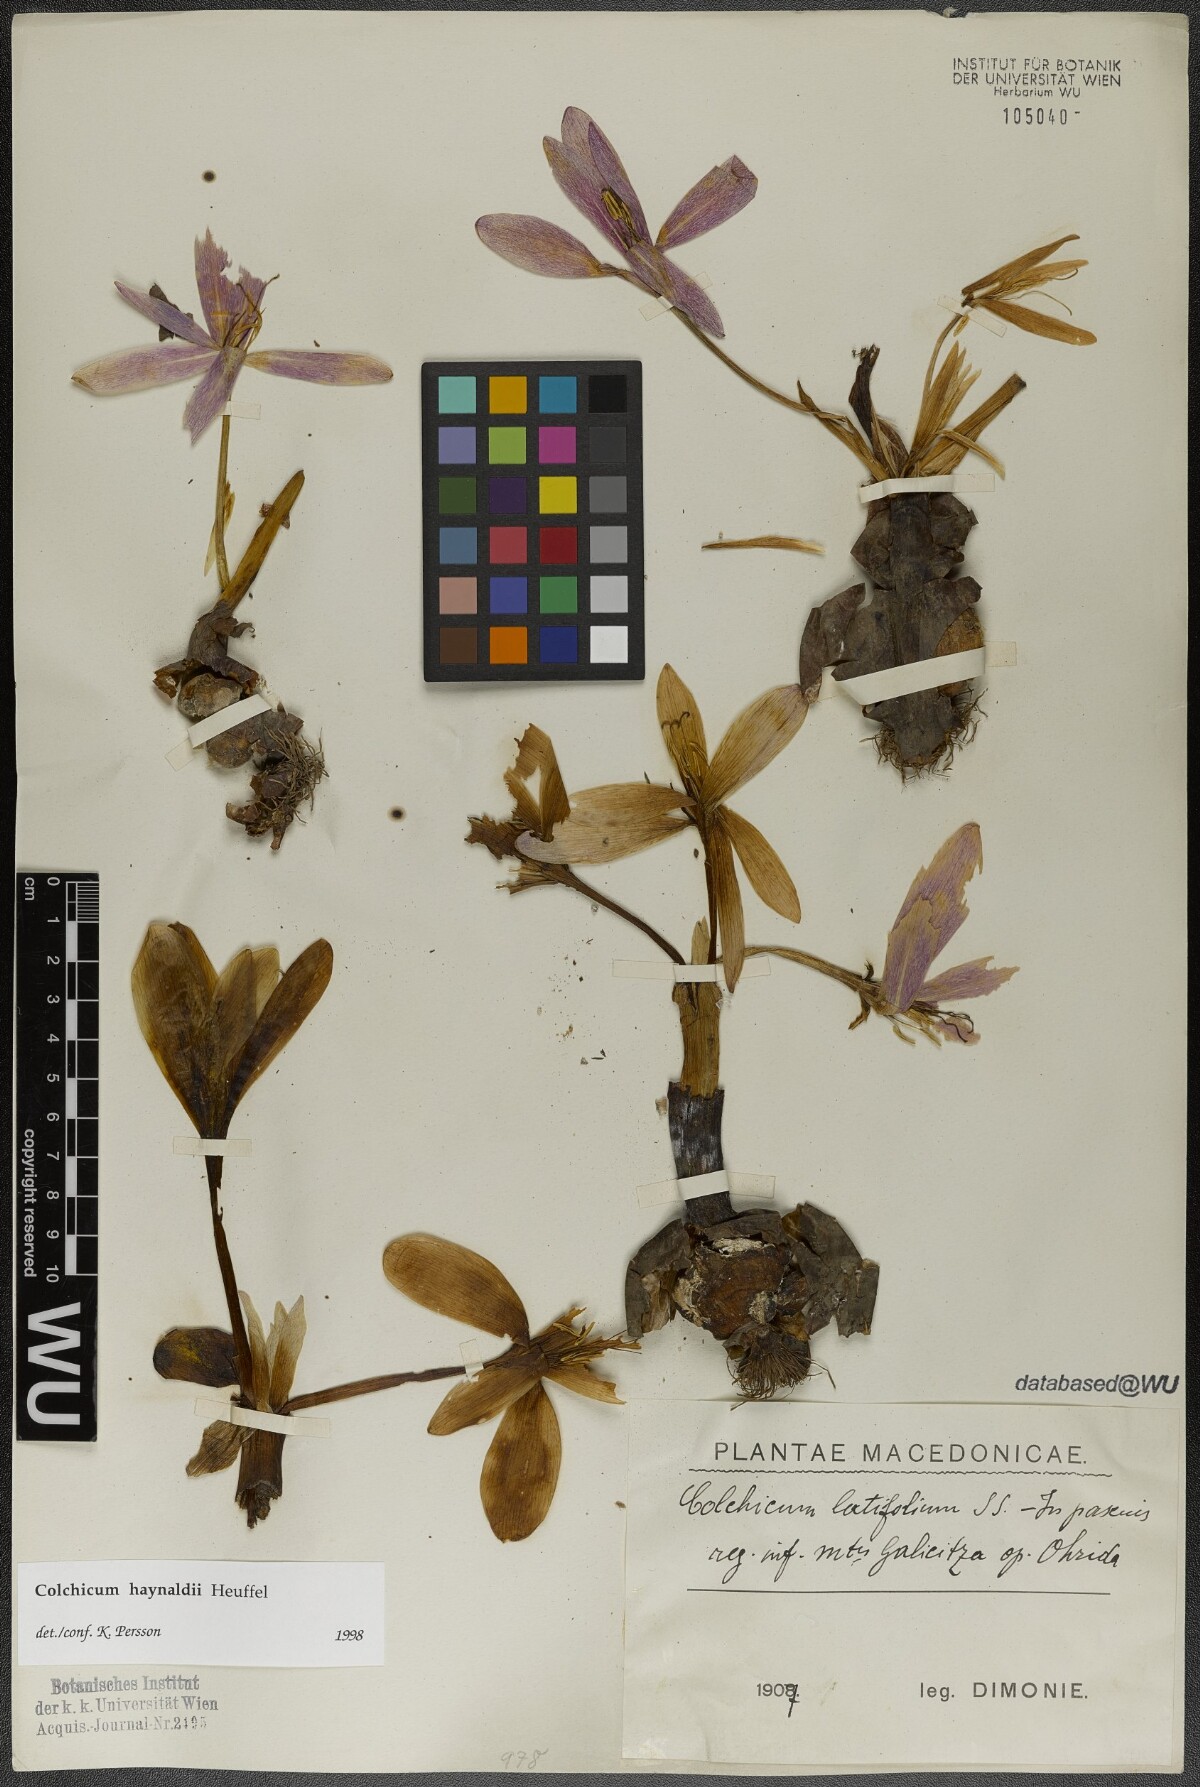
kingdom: Plantae
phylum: Tracheophyta
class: Liliopsida
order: Liliales
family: Colchicaceae
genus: Colchicum
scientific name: Colchicum haynaldii
